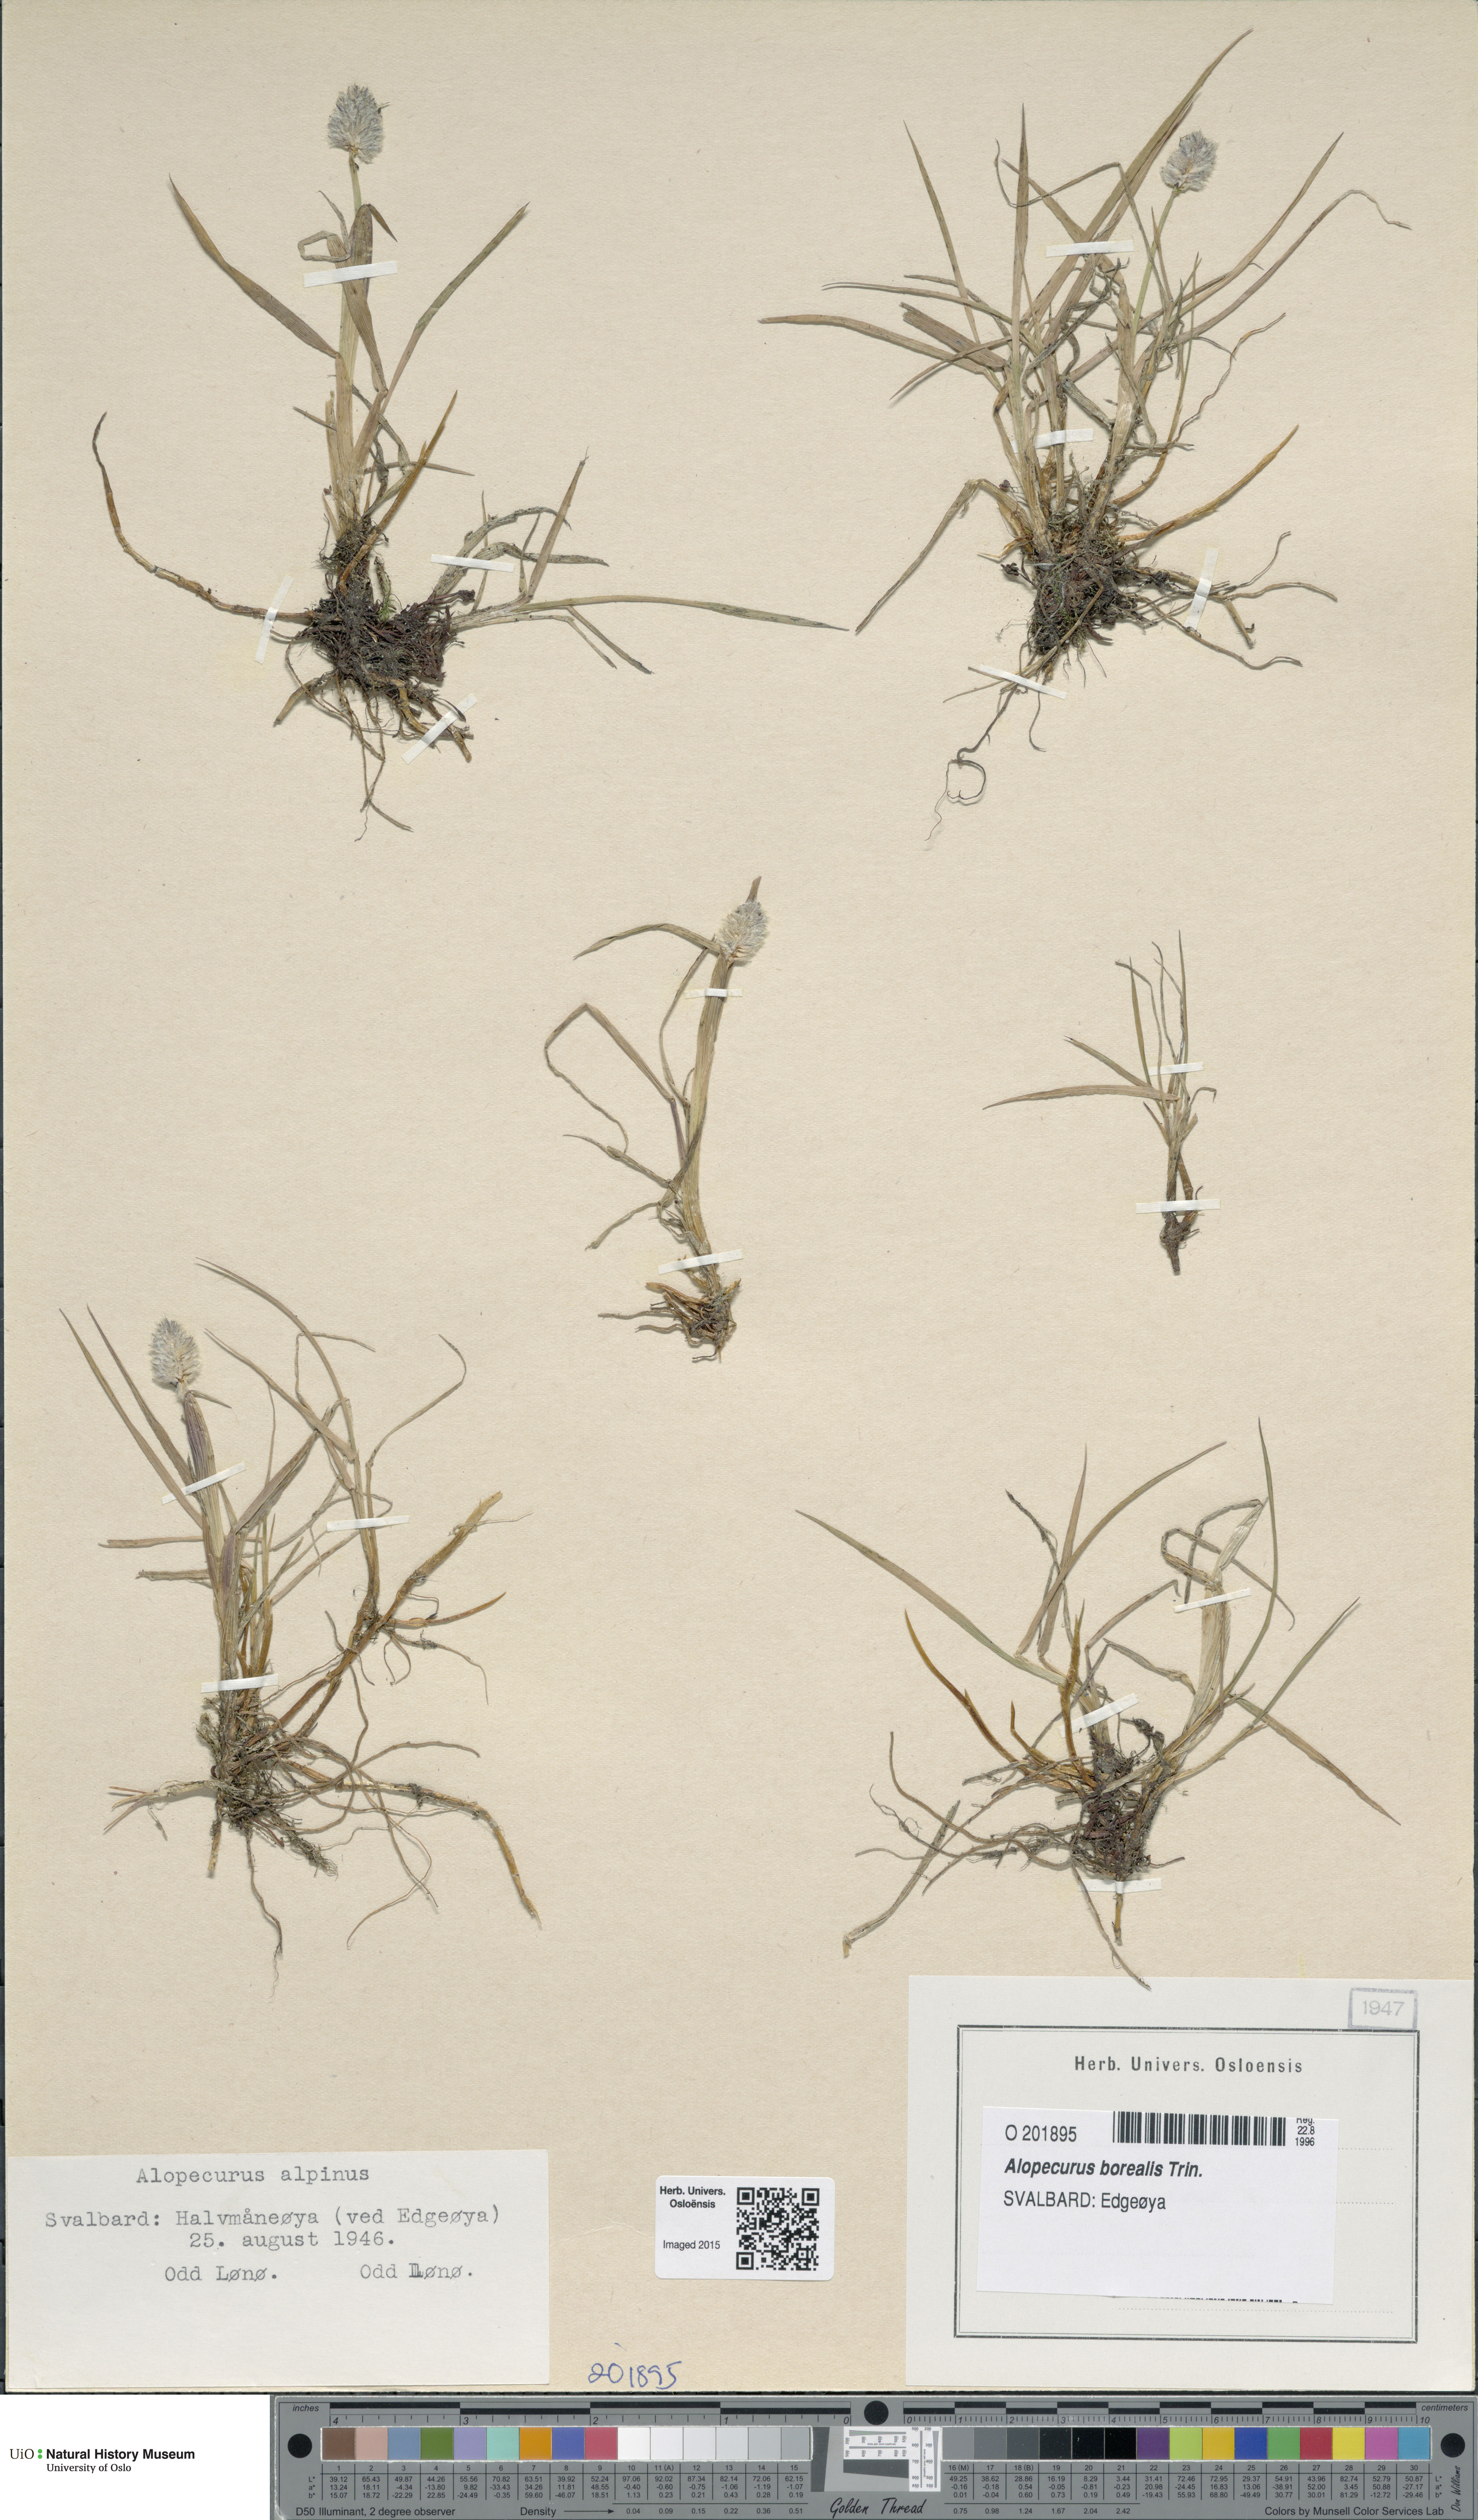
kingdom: Plantae
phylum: Tracheophyta
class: Liliopsida
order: Poales
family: Poaceae
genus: Alopecurus
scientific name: Alopecurus magellanicus
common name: Alpine foxtail
